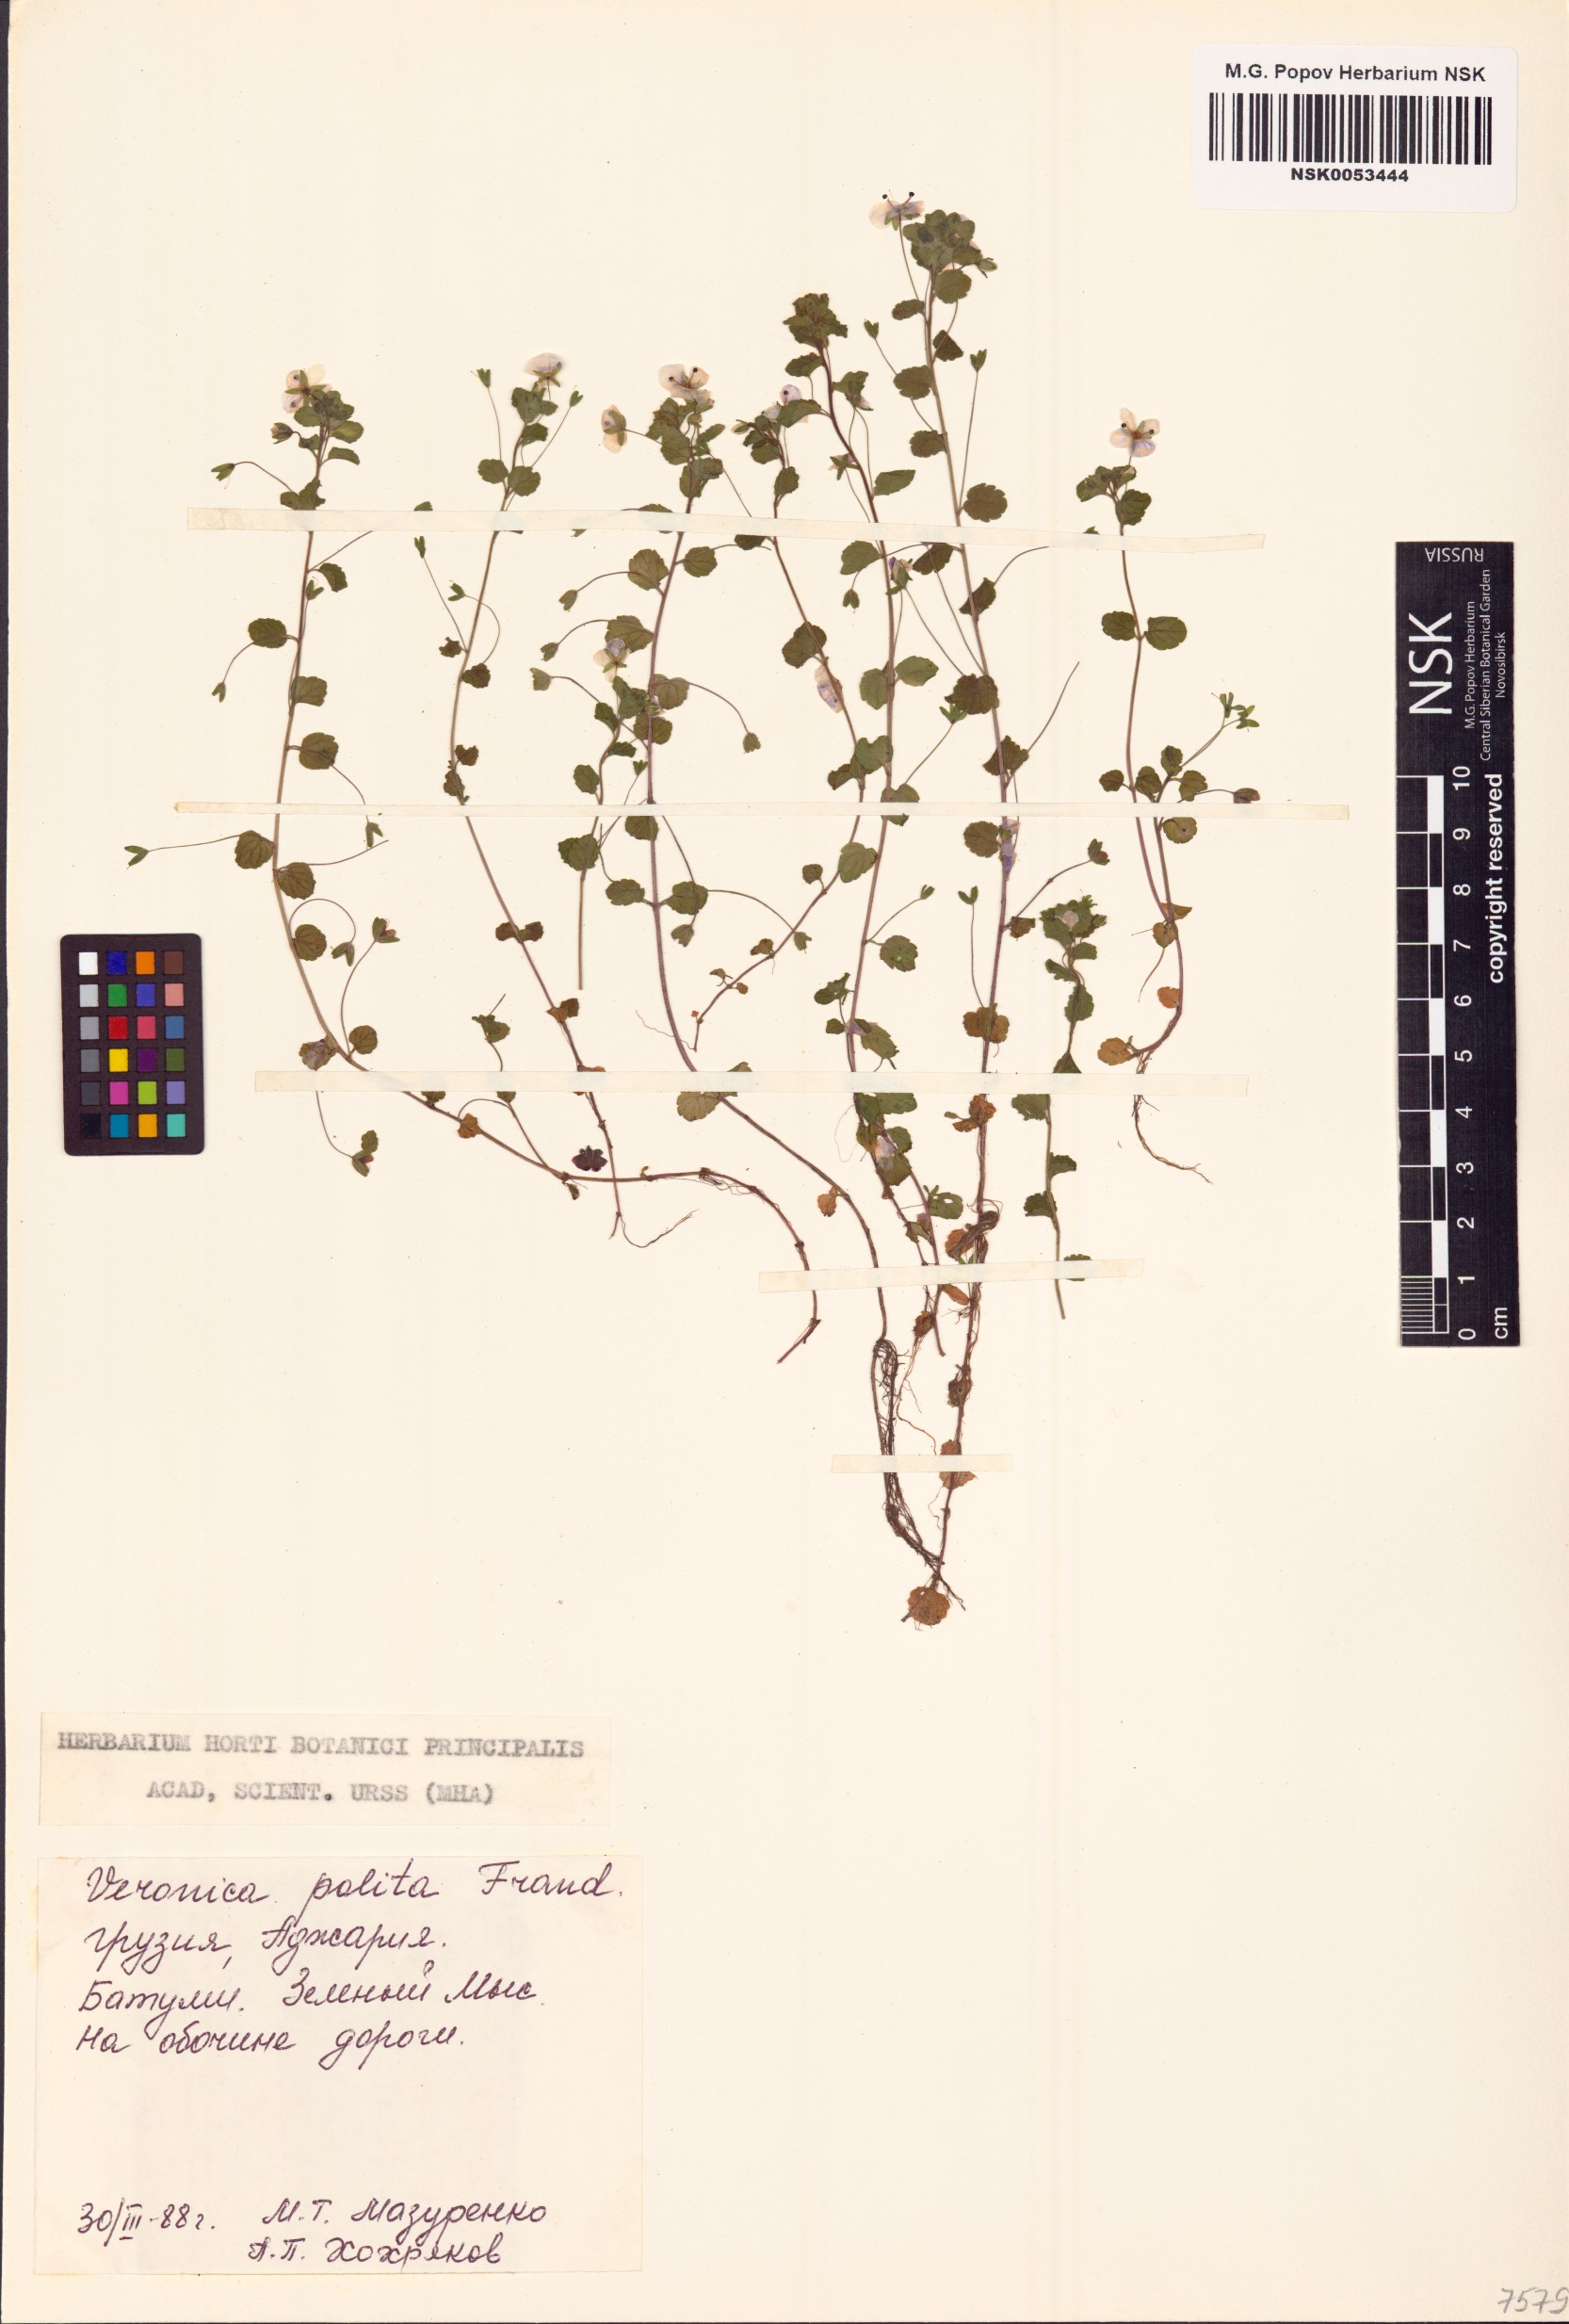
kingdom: Plantae
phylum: Tracheophyta
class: Magnoliopsida
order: Lamiales
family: Plantaginaceae
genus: Veronica
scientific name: Veronica polita
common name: Grey field-speedwell
